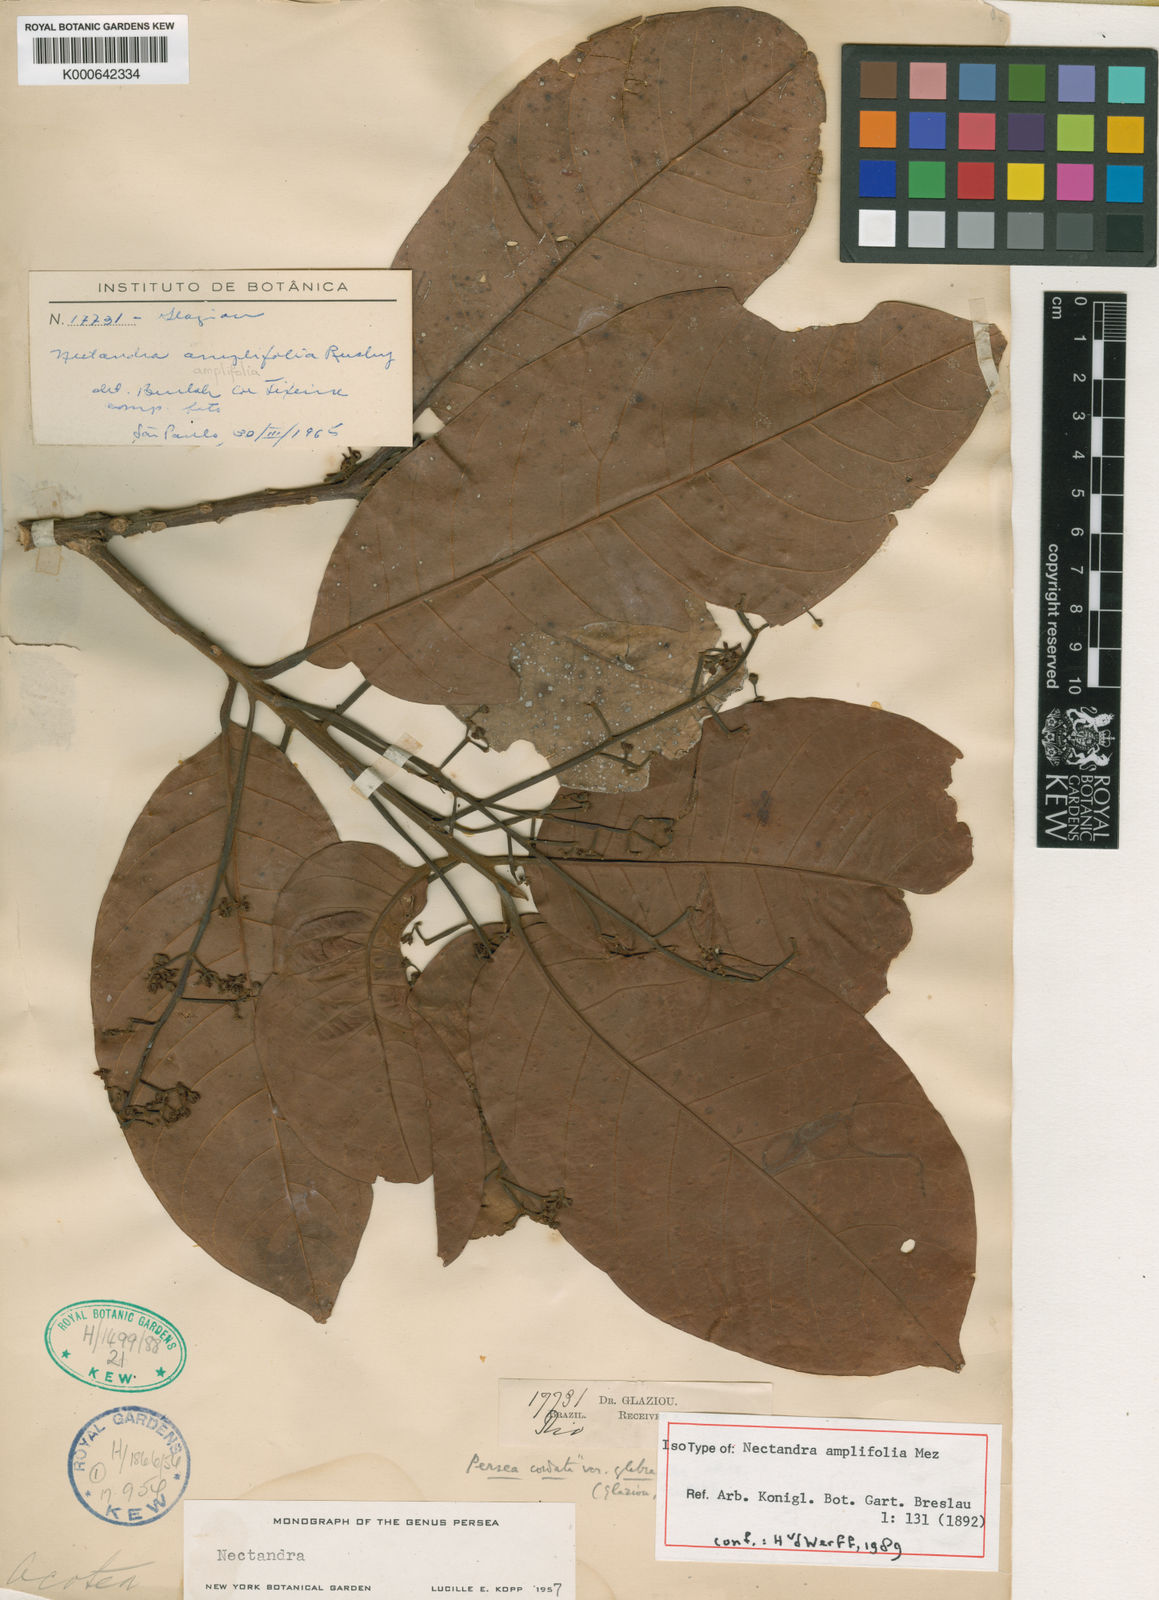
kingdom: Plantae
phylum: Tracheophyta
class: Magnoliopsida
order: Laurales
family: Lauraceae
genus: Pleurothyrium
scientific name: Pleurothyrium amplifolium
